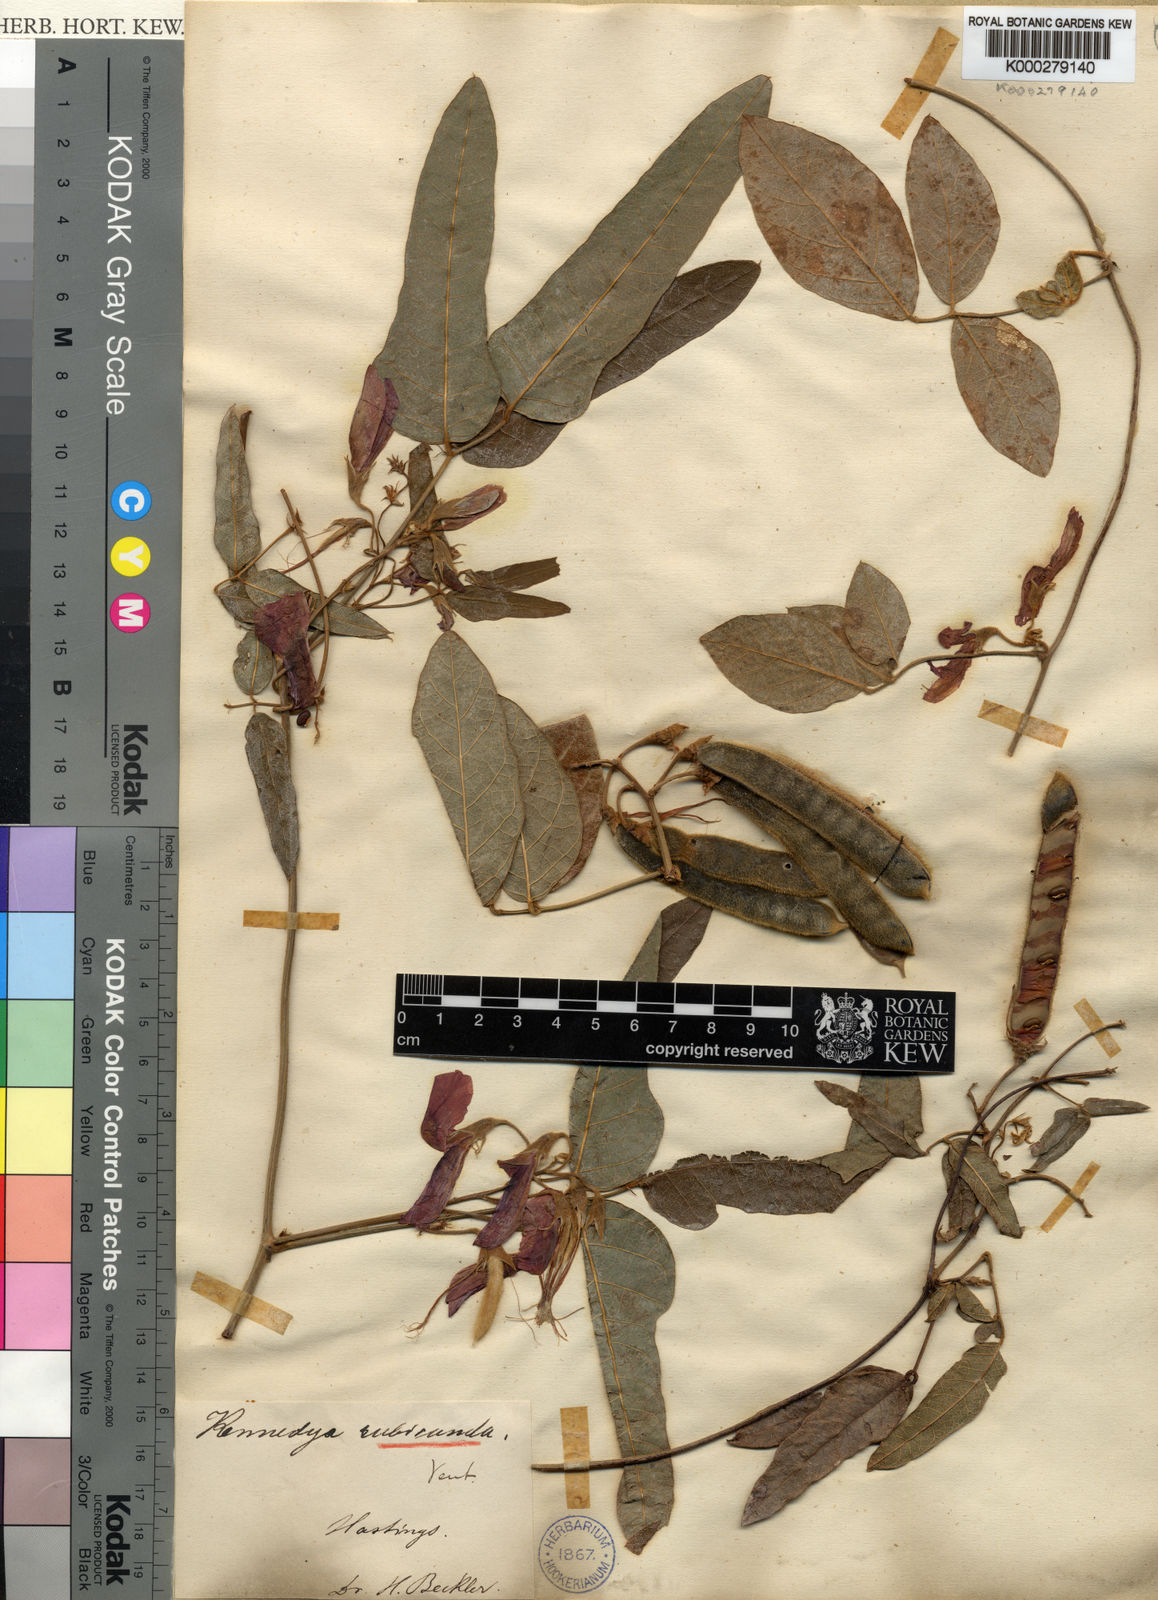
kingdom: Plantae
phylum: Tracheophyta
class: Magnoliopsida
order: Fabales
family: Fabaceae
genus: Kennedia
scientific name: Kennedia rubicunda
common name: Red kennedy-pea
